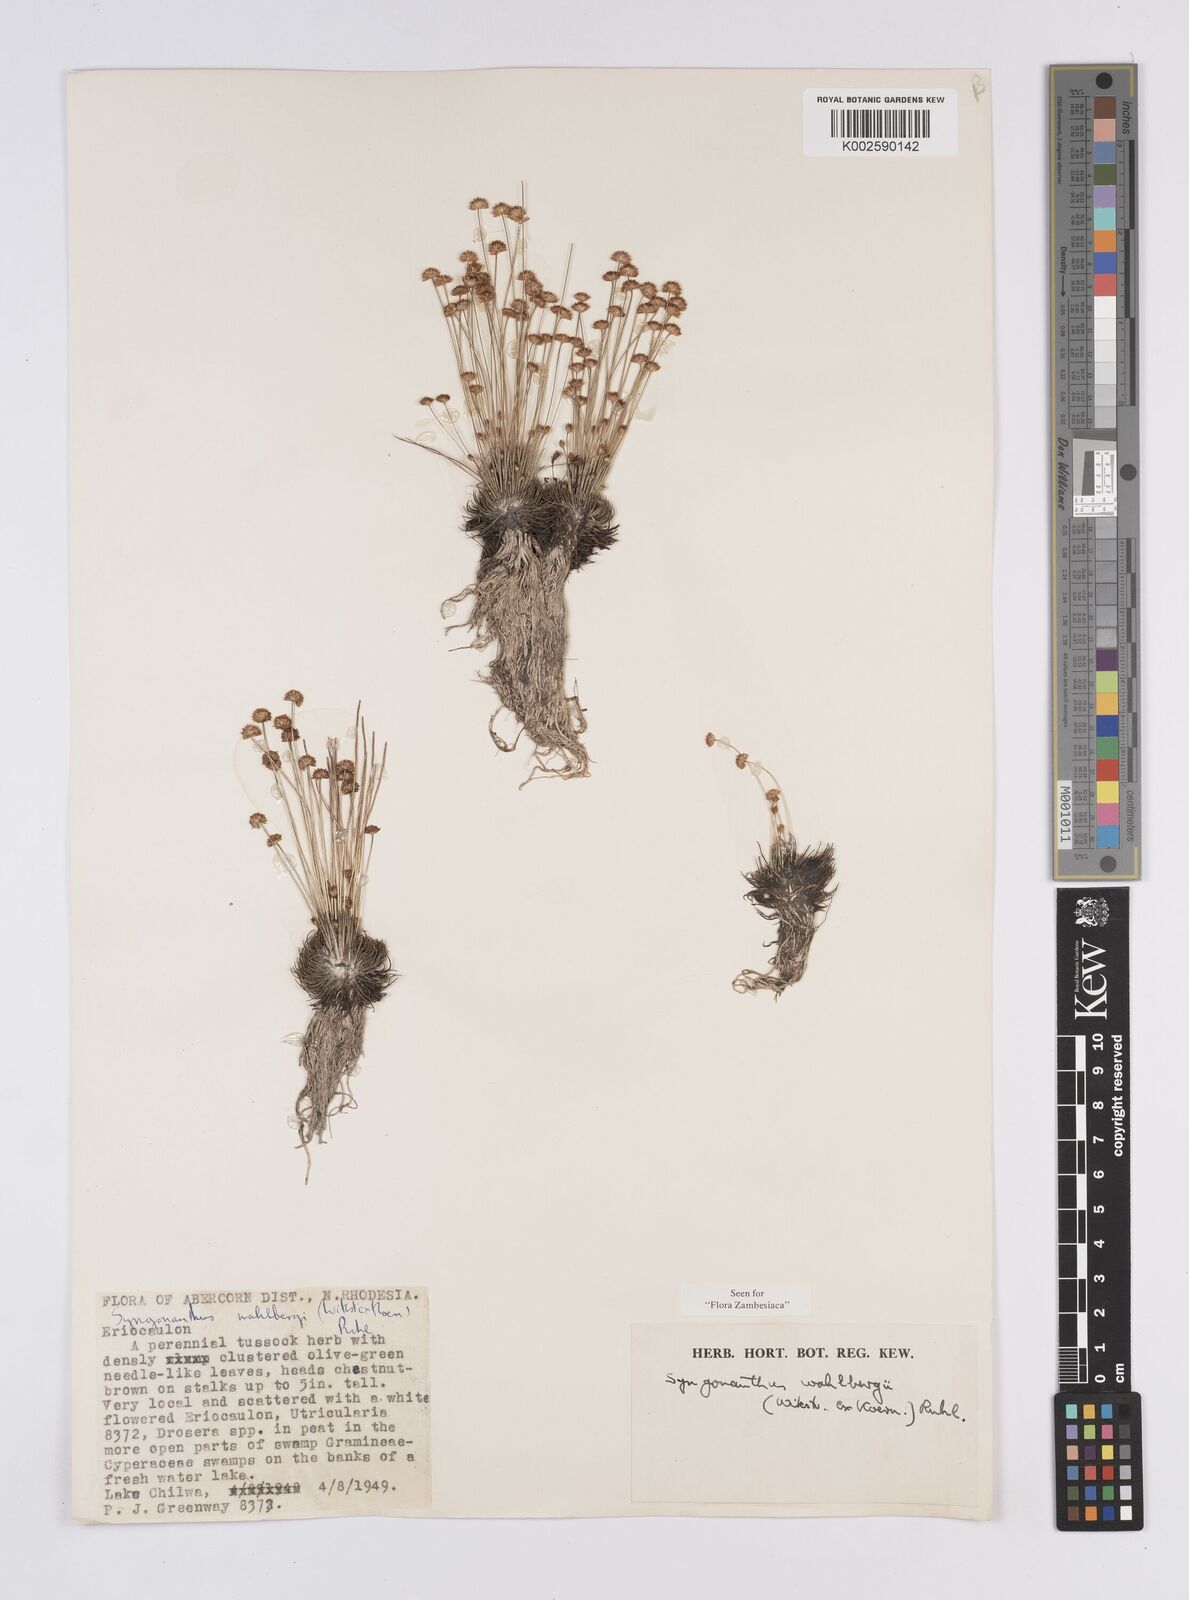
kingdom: Plantae
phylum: Tracheophyta
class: Liliopsida
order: Poales
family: Eriocaulaceae
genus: Syngonanthus
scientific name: Syngonanthus wahlbergii
